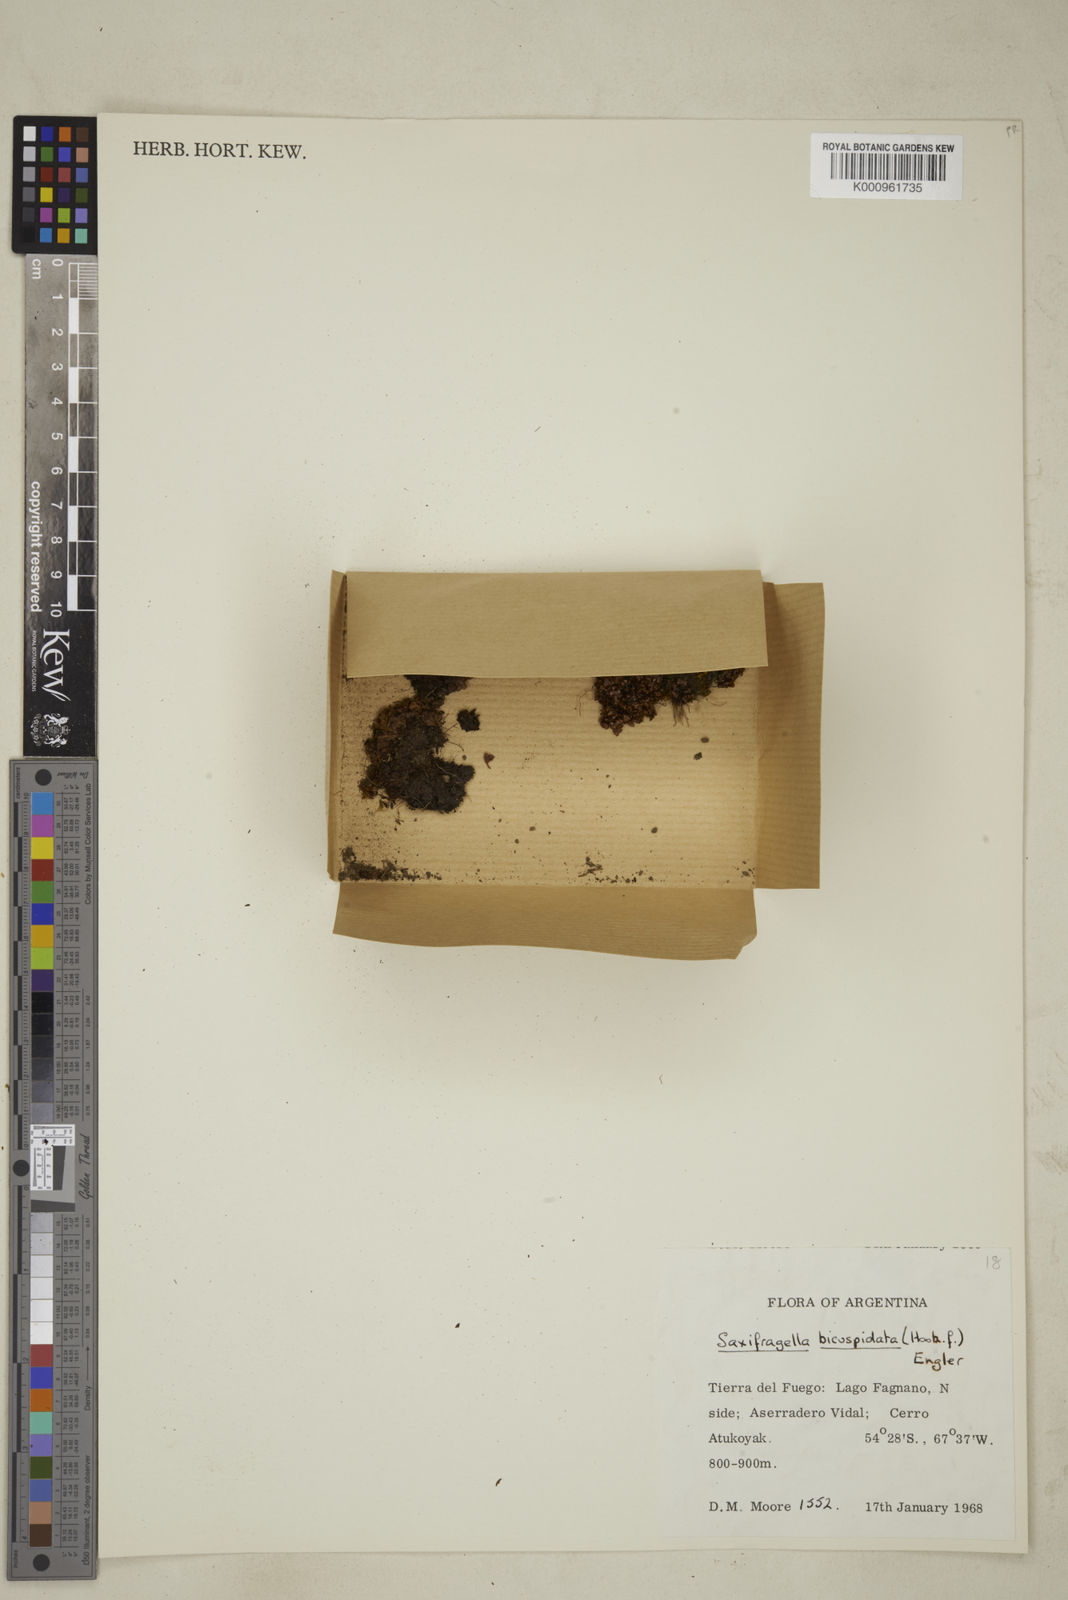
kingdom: Plantae
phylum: Tracheophyta
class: Magnoliopsida
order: Saxifragales
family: Saxifragaceae
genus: Saxifraga
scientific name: Saxifraga bicuspidata
